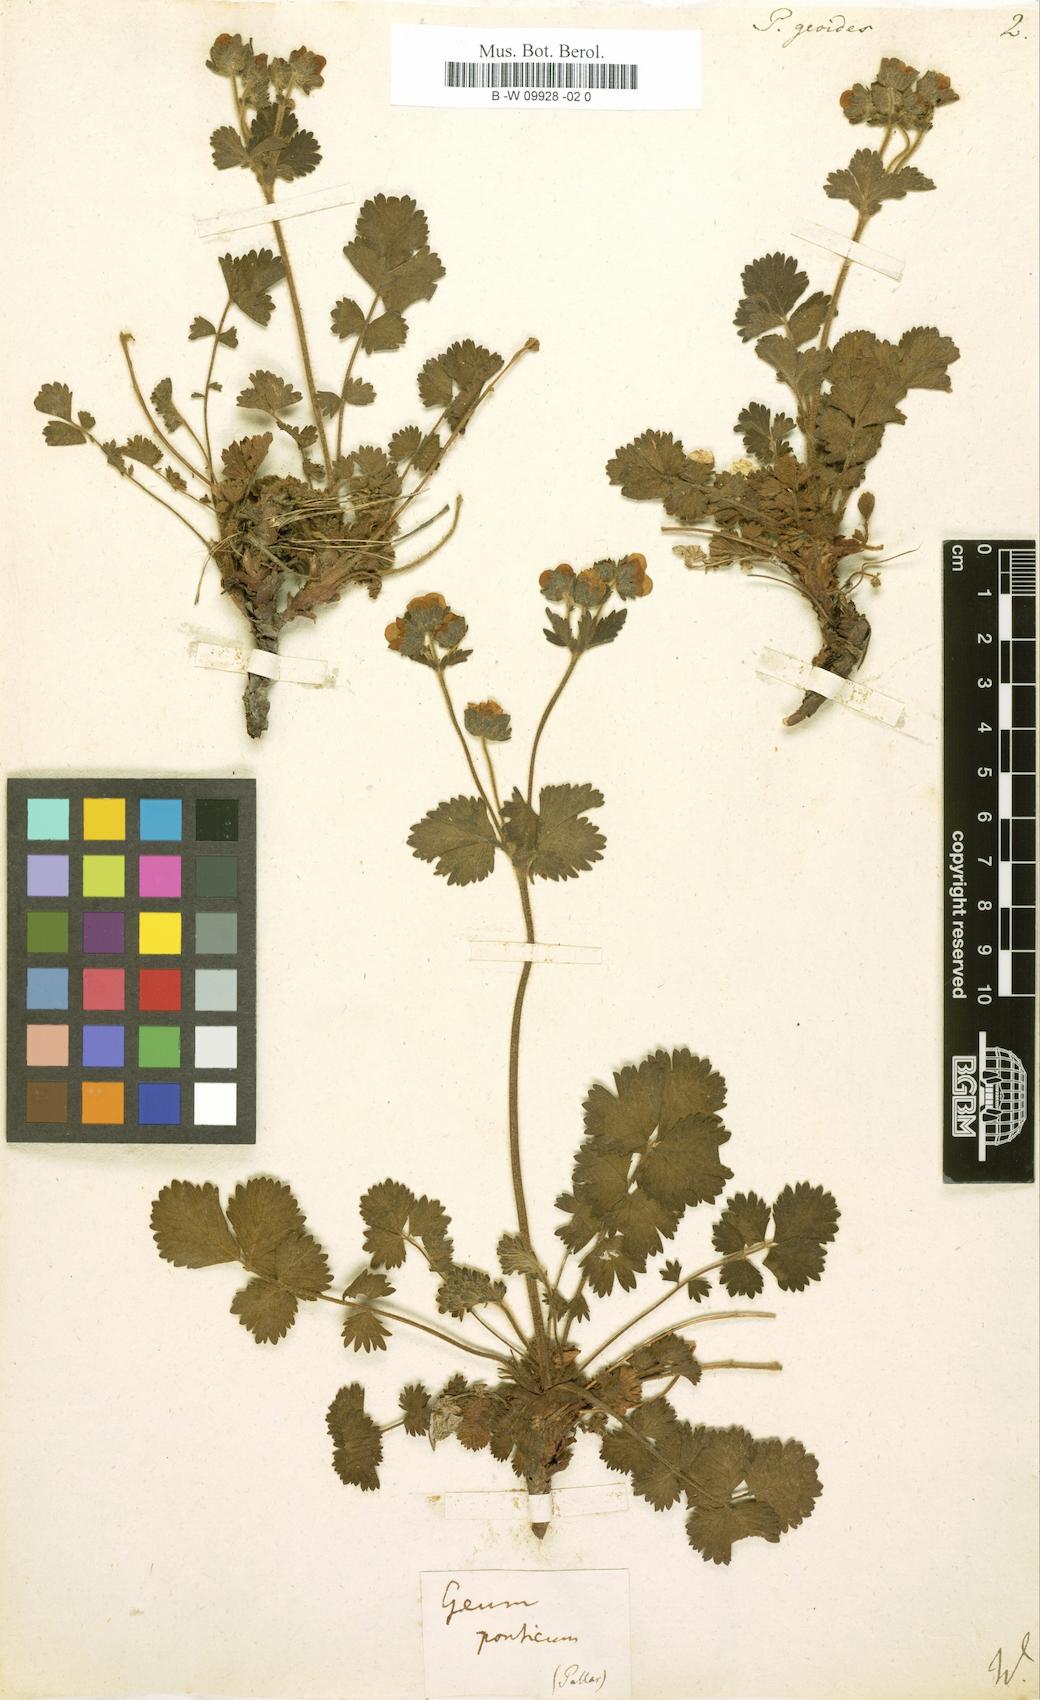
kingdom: Plantae
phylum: Tracheophyta
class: Magnoliopsida
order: Rosales
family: Rosaceae
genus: Drymocallis
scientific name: Drymocallis geoides
